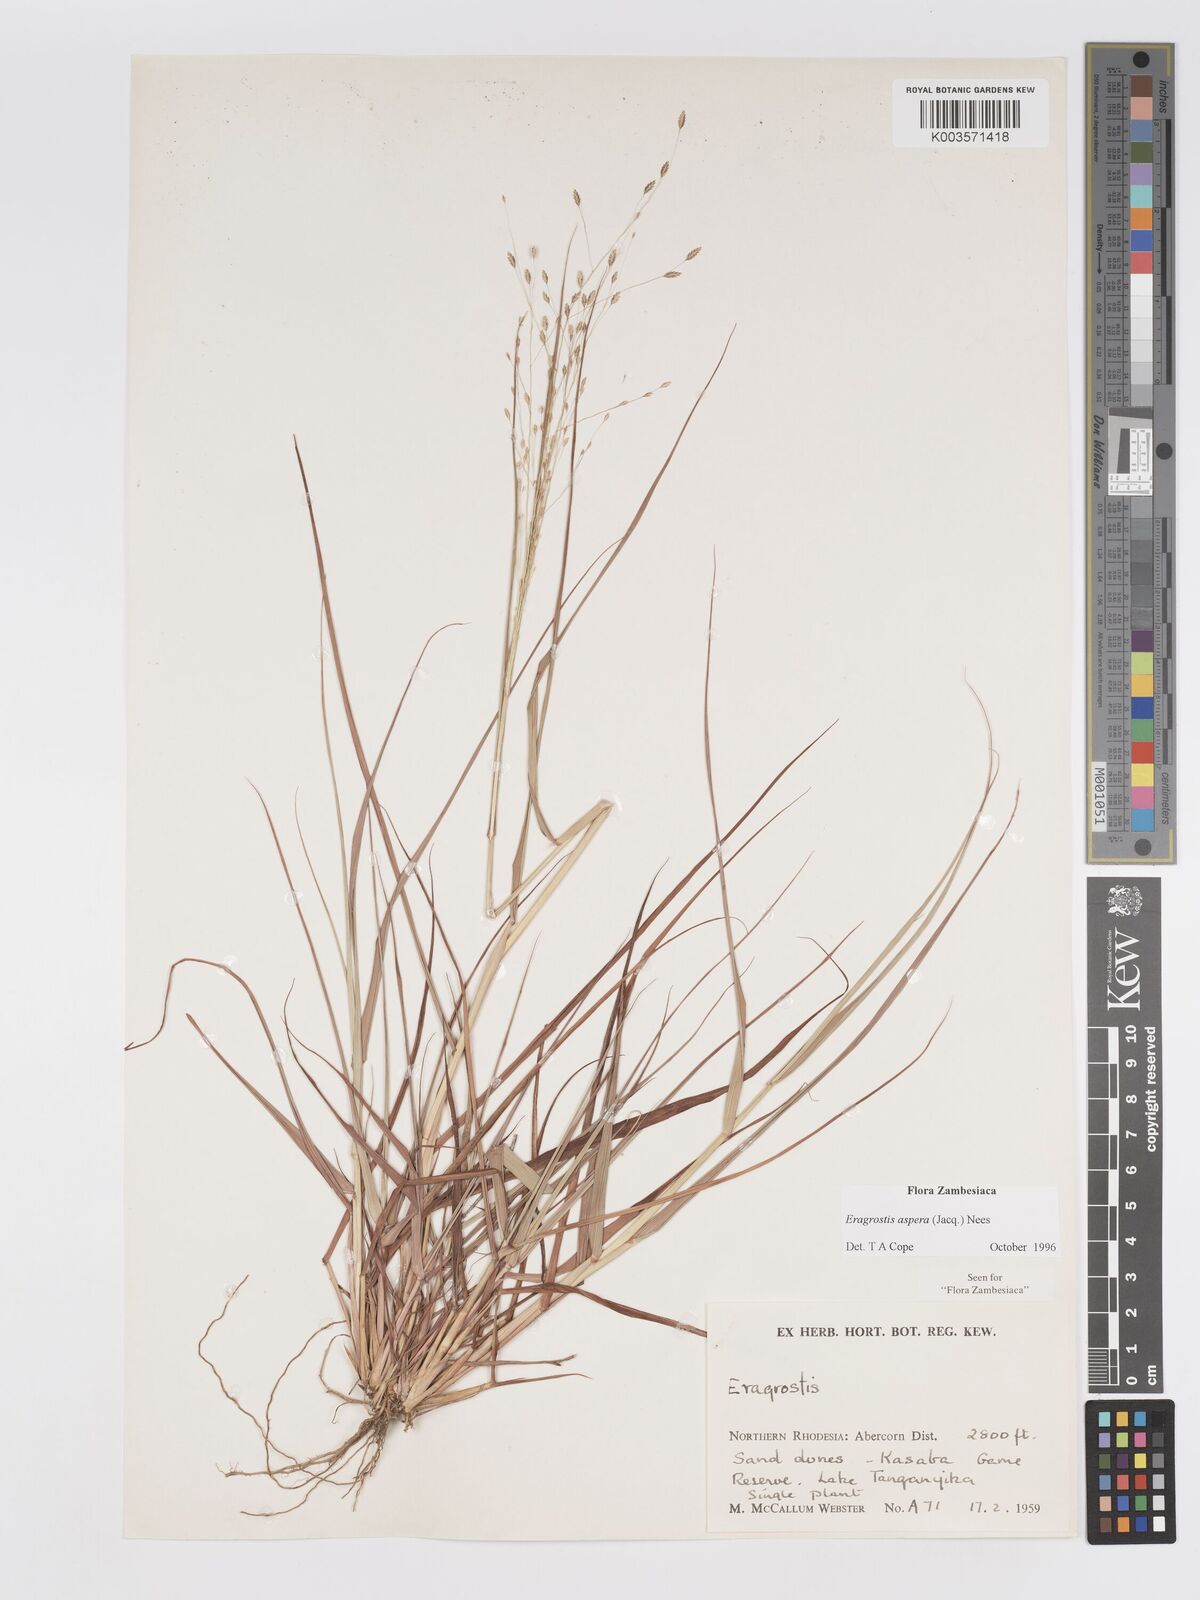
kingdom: Plantae
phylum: Tracheophyta
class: Liliopsida
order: Poales
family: Poaceae
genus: Eragrostis
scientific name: Eragrostis aspera
